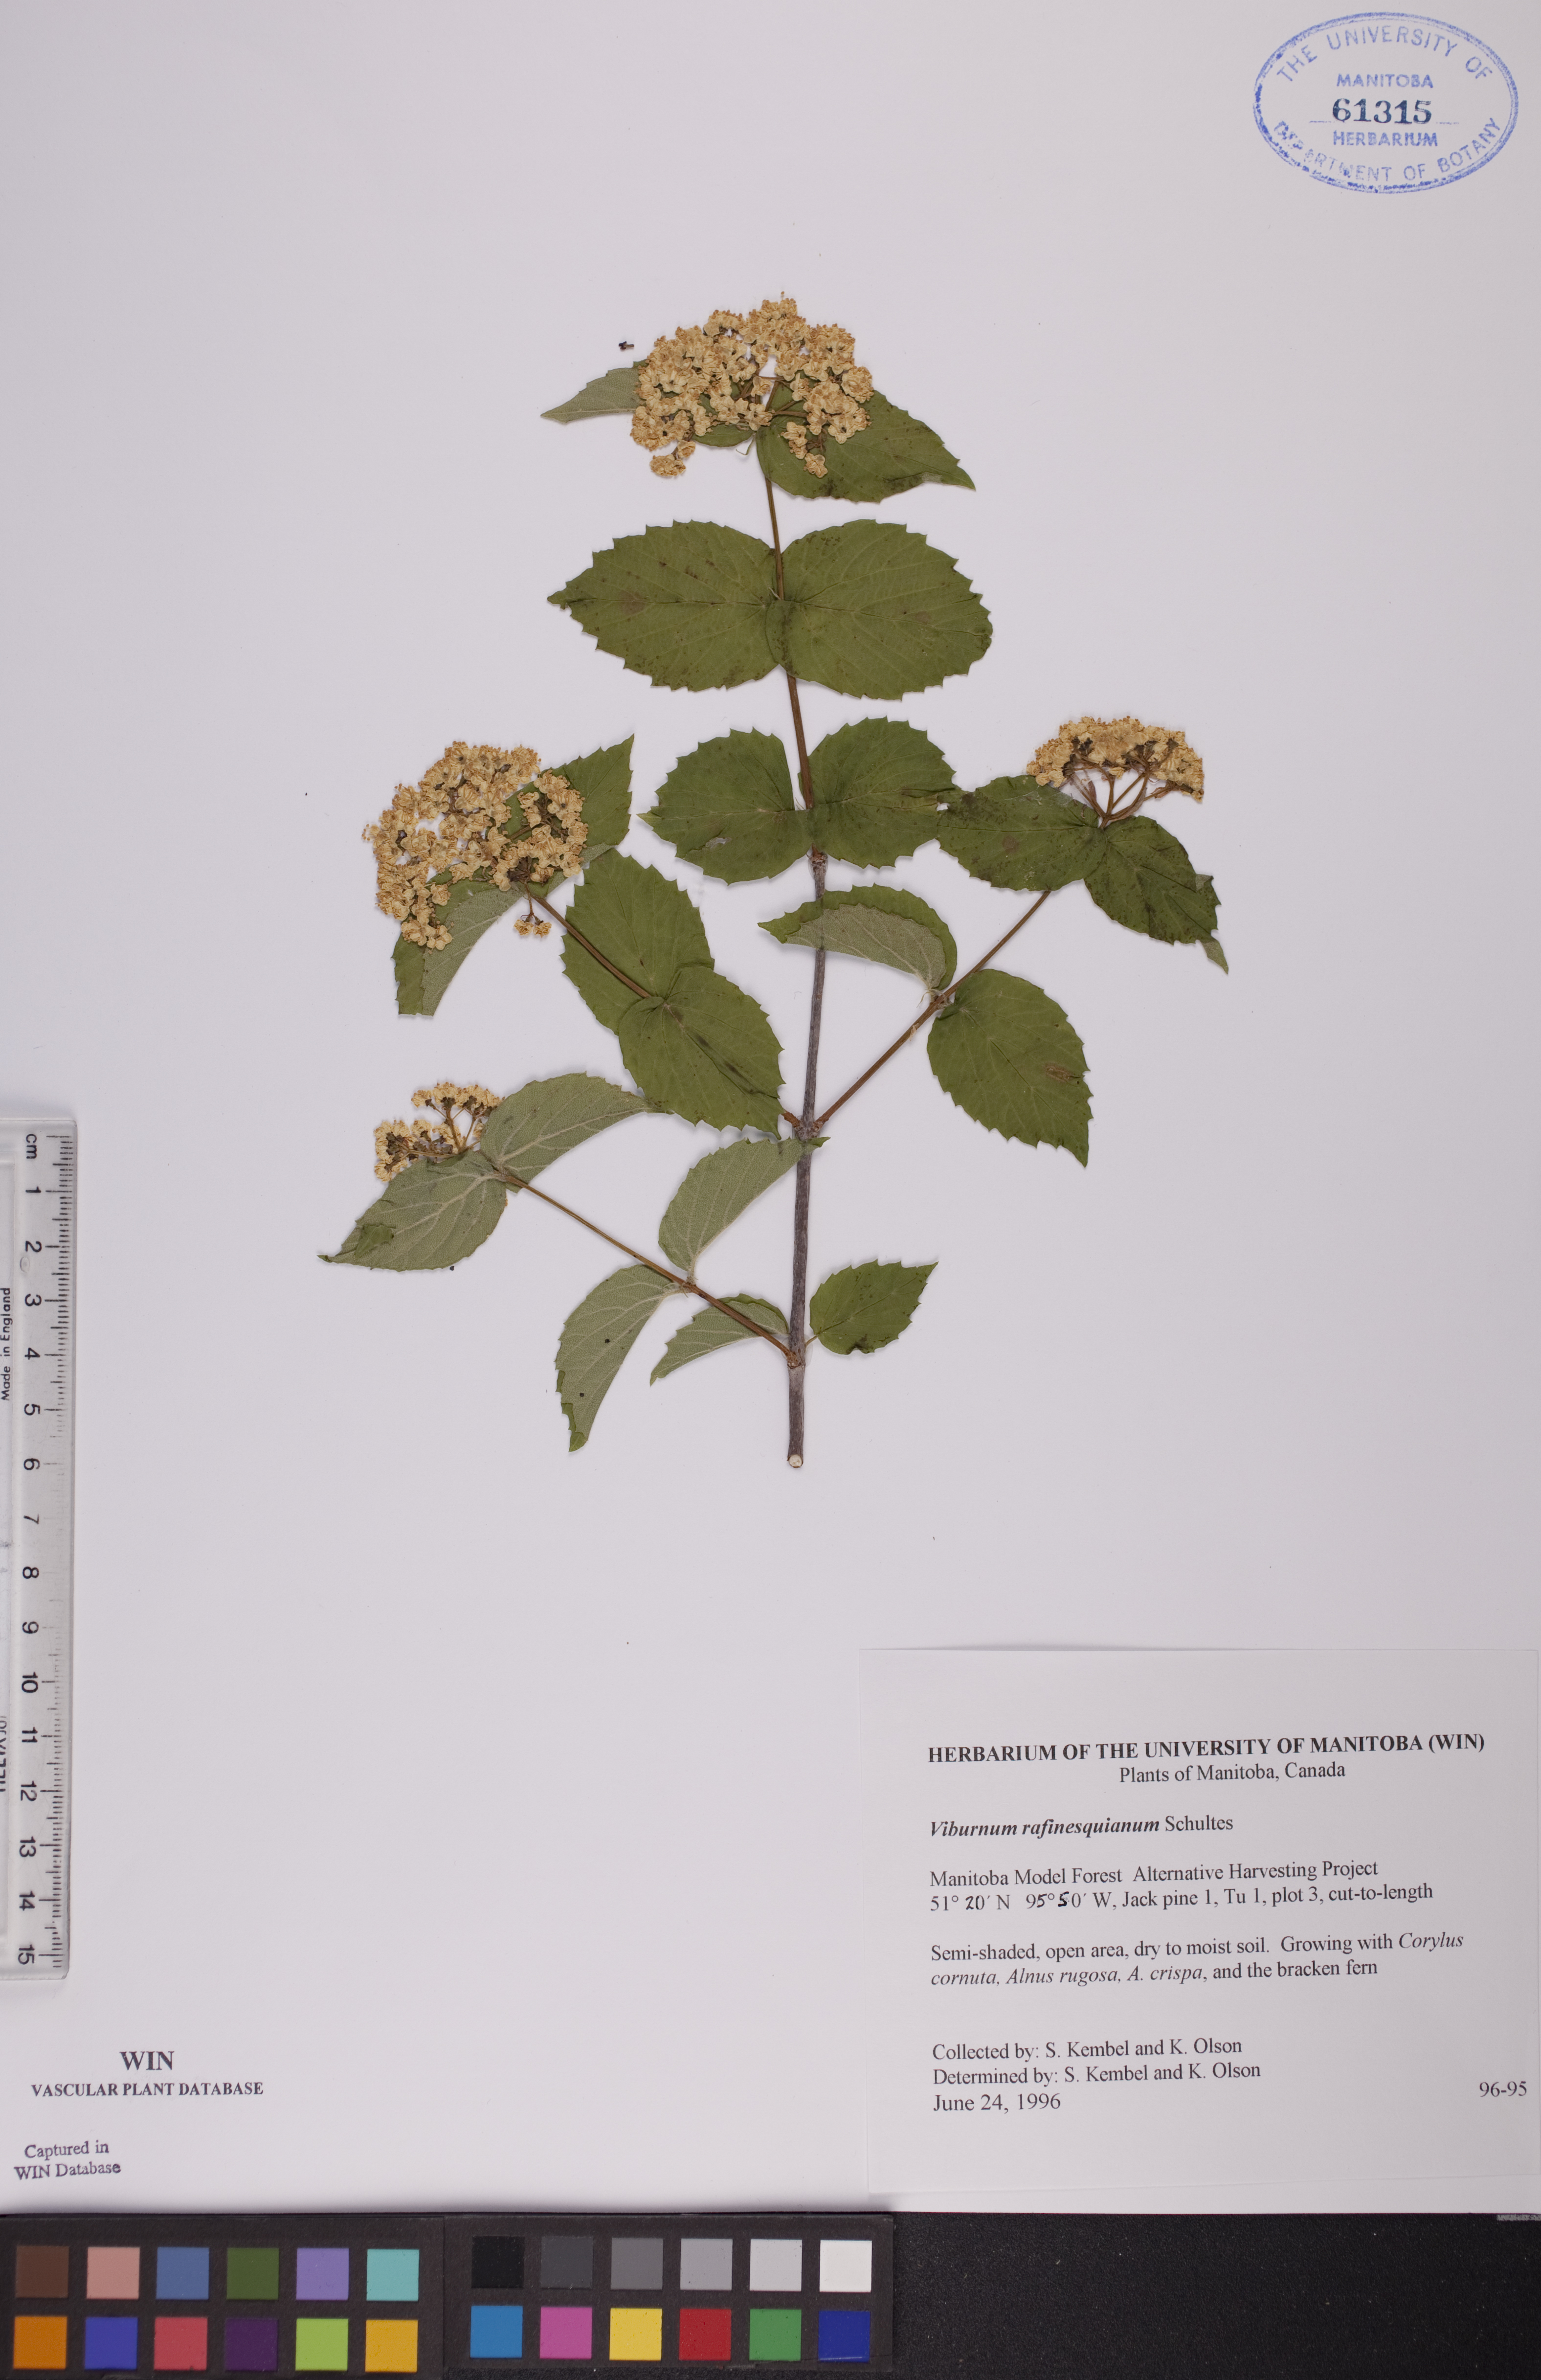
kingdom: Plantae
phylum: Tracheophyta
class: Magnoliopsida
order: Dipsacales
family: Viburnaceae
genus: Viburnum
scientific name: Viburnum rafinesquianum
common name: Downy arrow-wood
